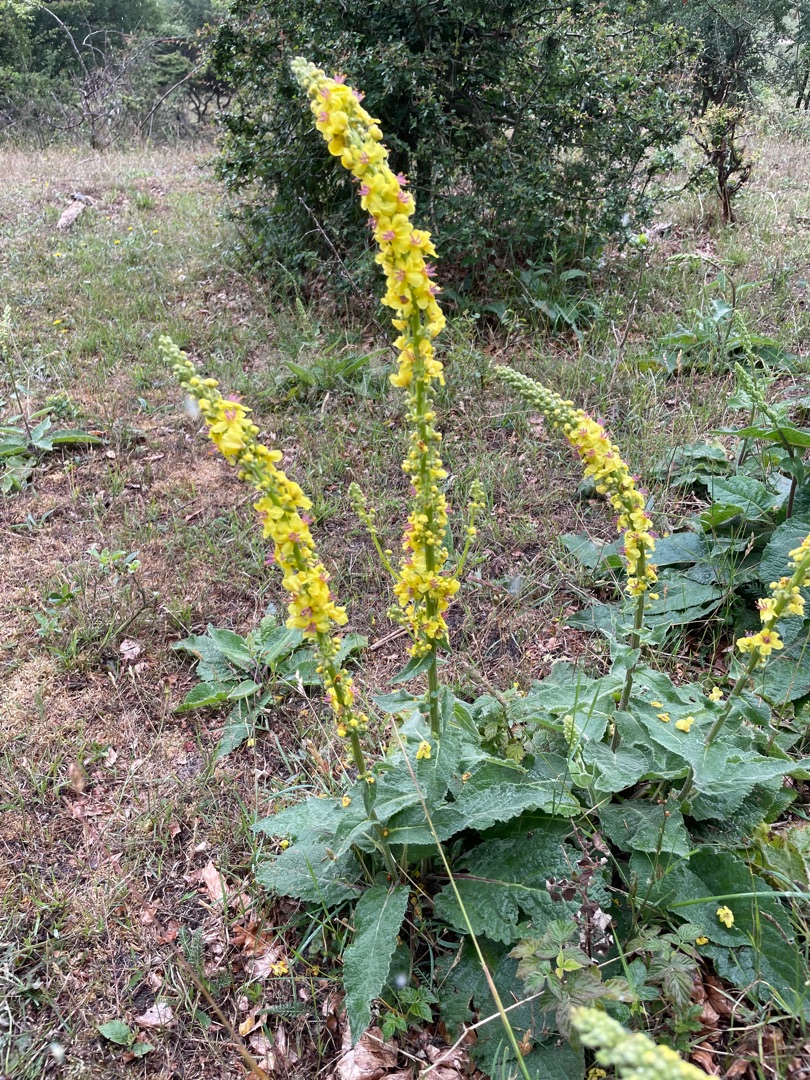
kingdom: Plantae
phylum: Tracheophyta
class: Magnoliopsida
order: Lamiales
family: Scrophulariaceae
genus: Verbascum
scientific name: Verbascum nigrum
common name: Mørk kongelys
